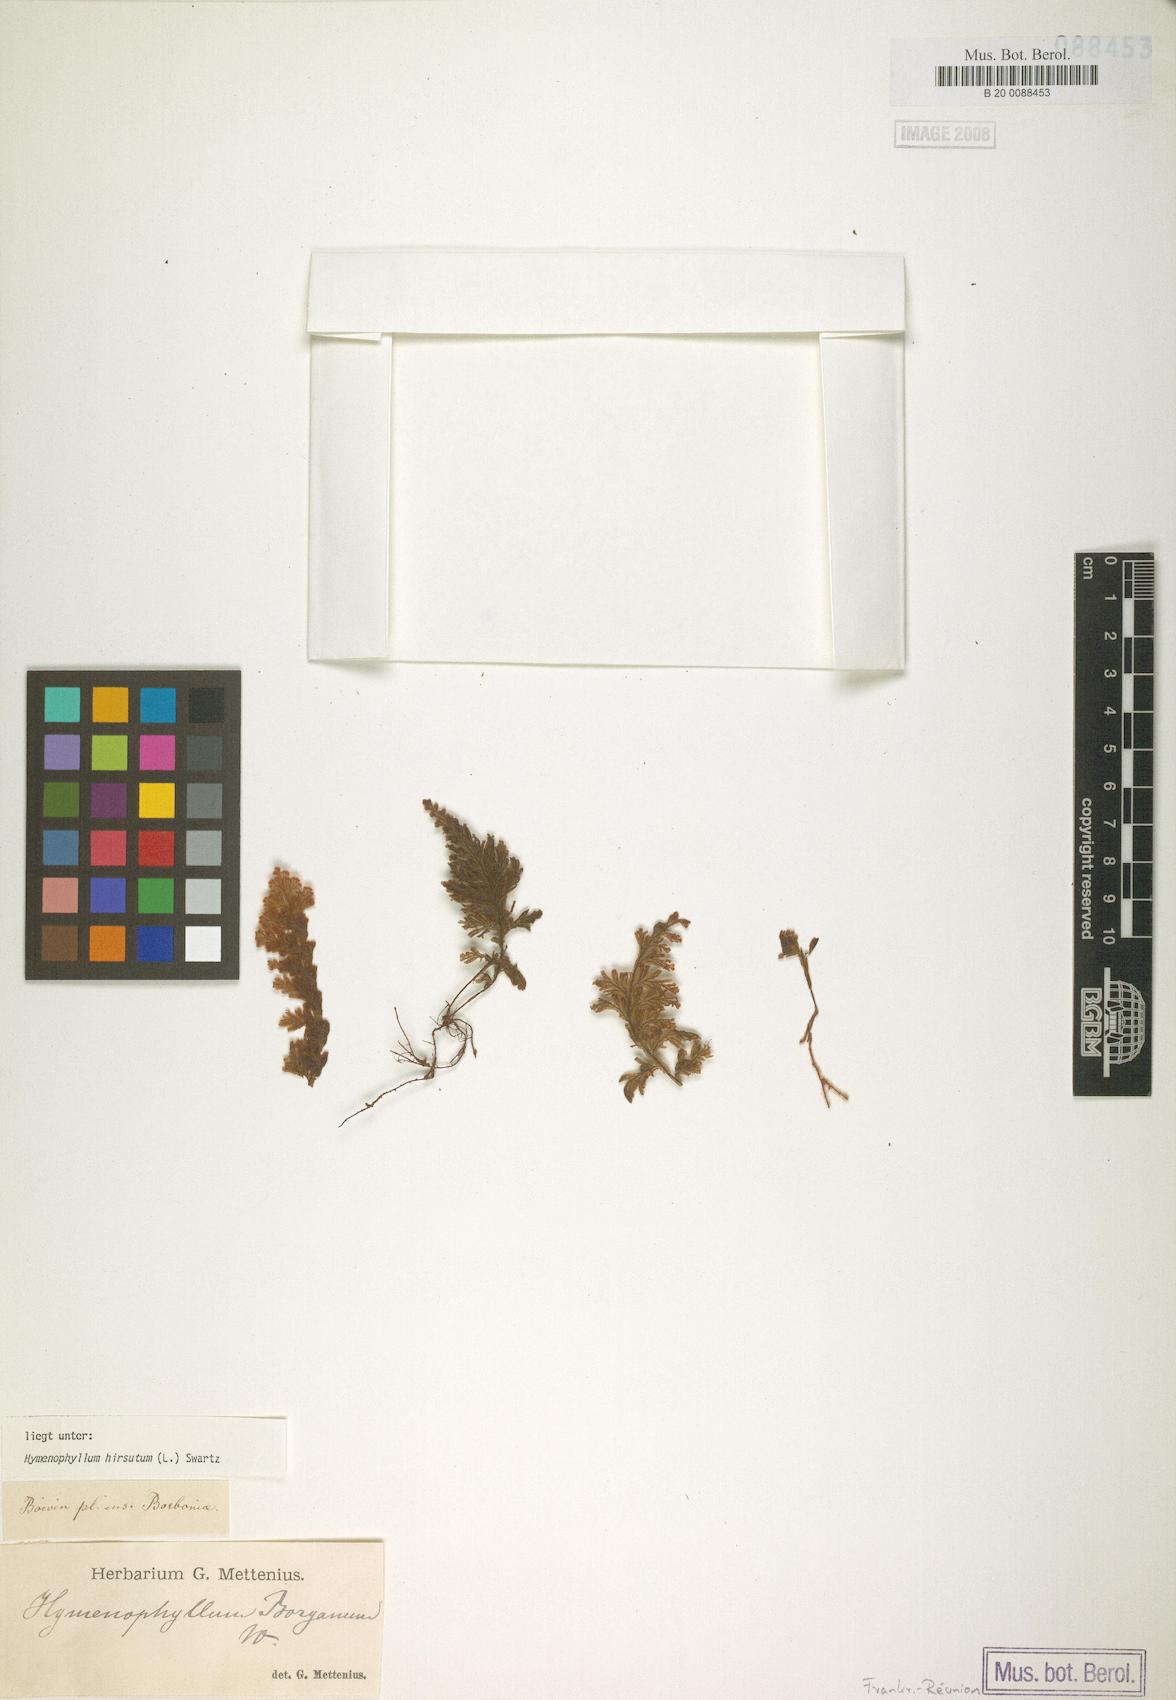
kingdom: Plantae
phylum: Tracheophyta
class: Polypodiopsida
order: Hymenophyllales
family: Hymenophyllaceae
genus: Hymenophyllum
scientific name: Hymenophyllum hirsutum
